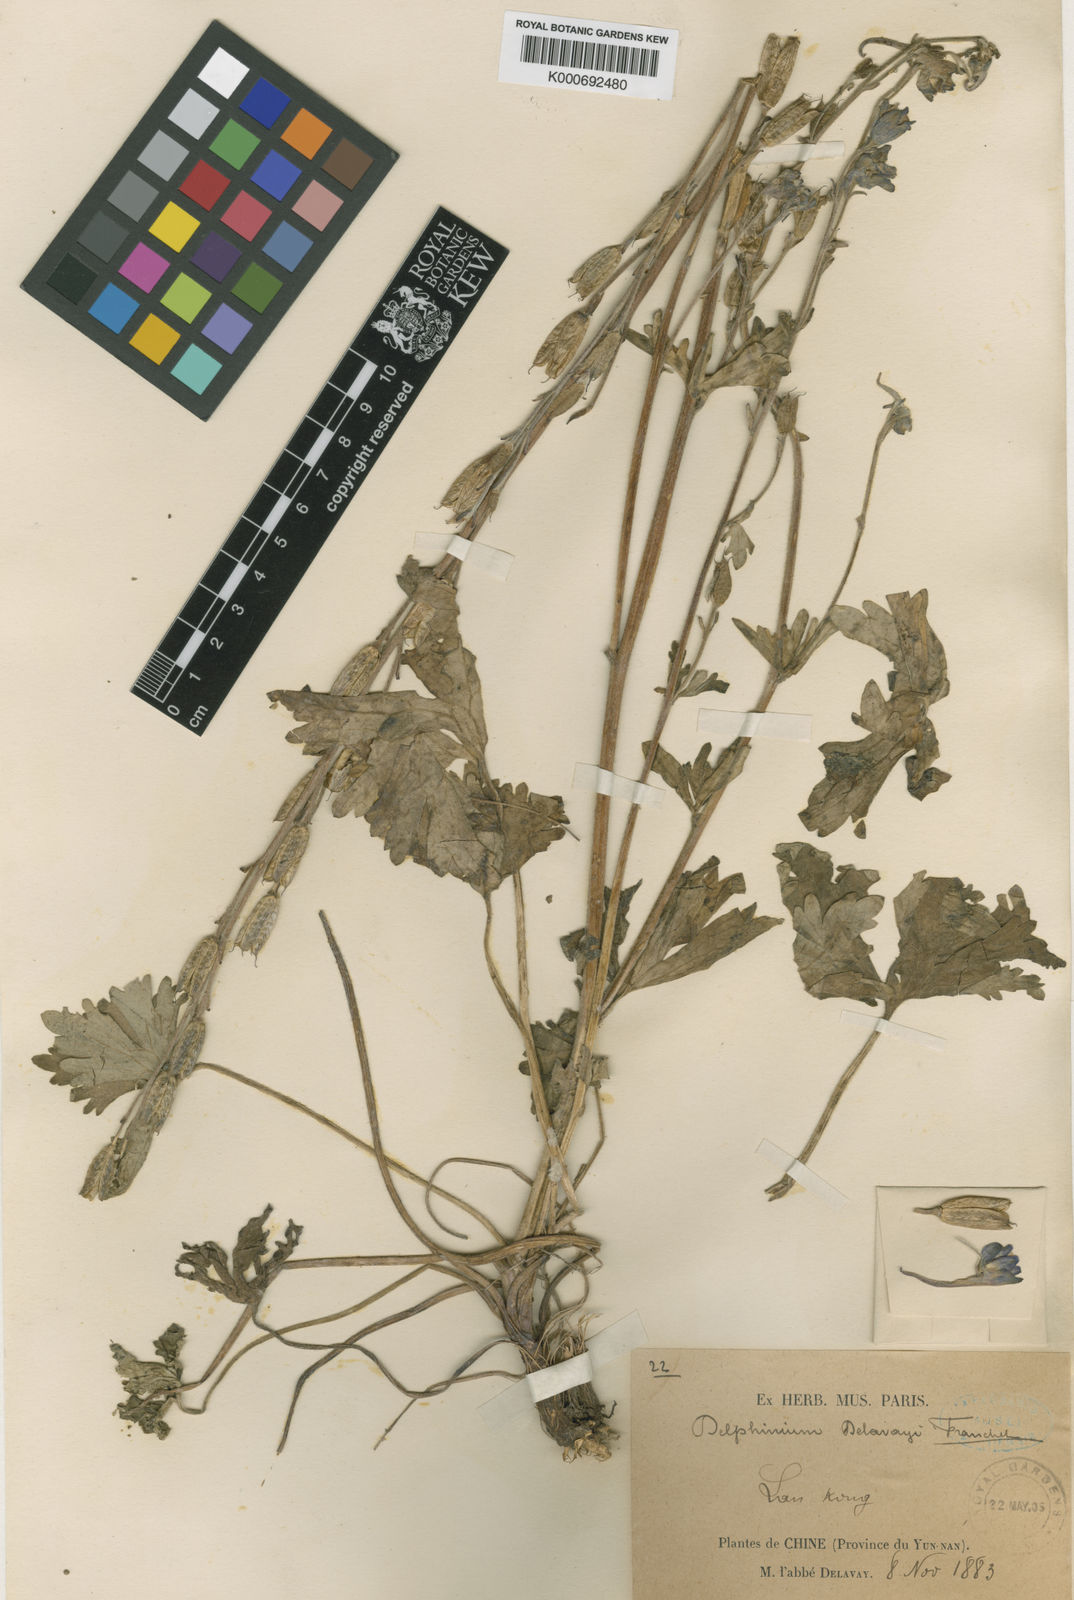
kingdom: Plantae
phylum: Tracheophyta
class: Magnoliopsida
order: Ranunculales
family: Ranunculaceae
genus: Delphinium
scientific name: Delphinium delavayi
